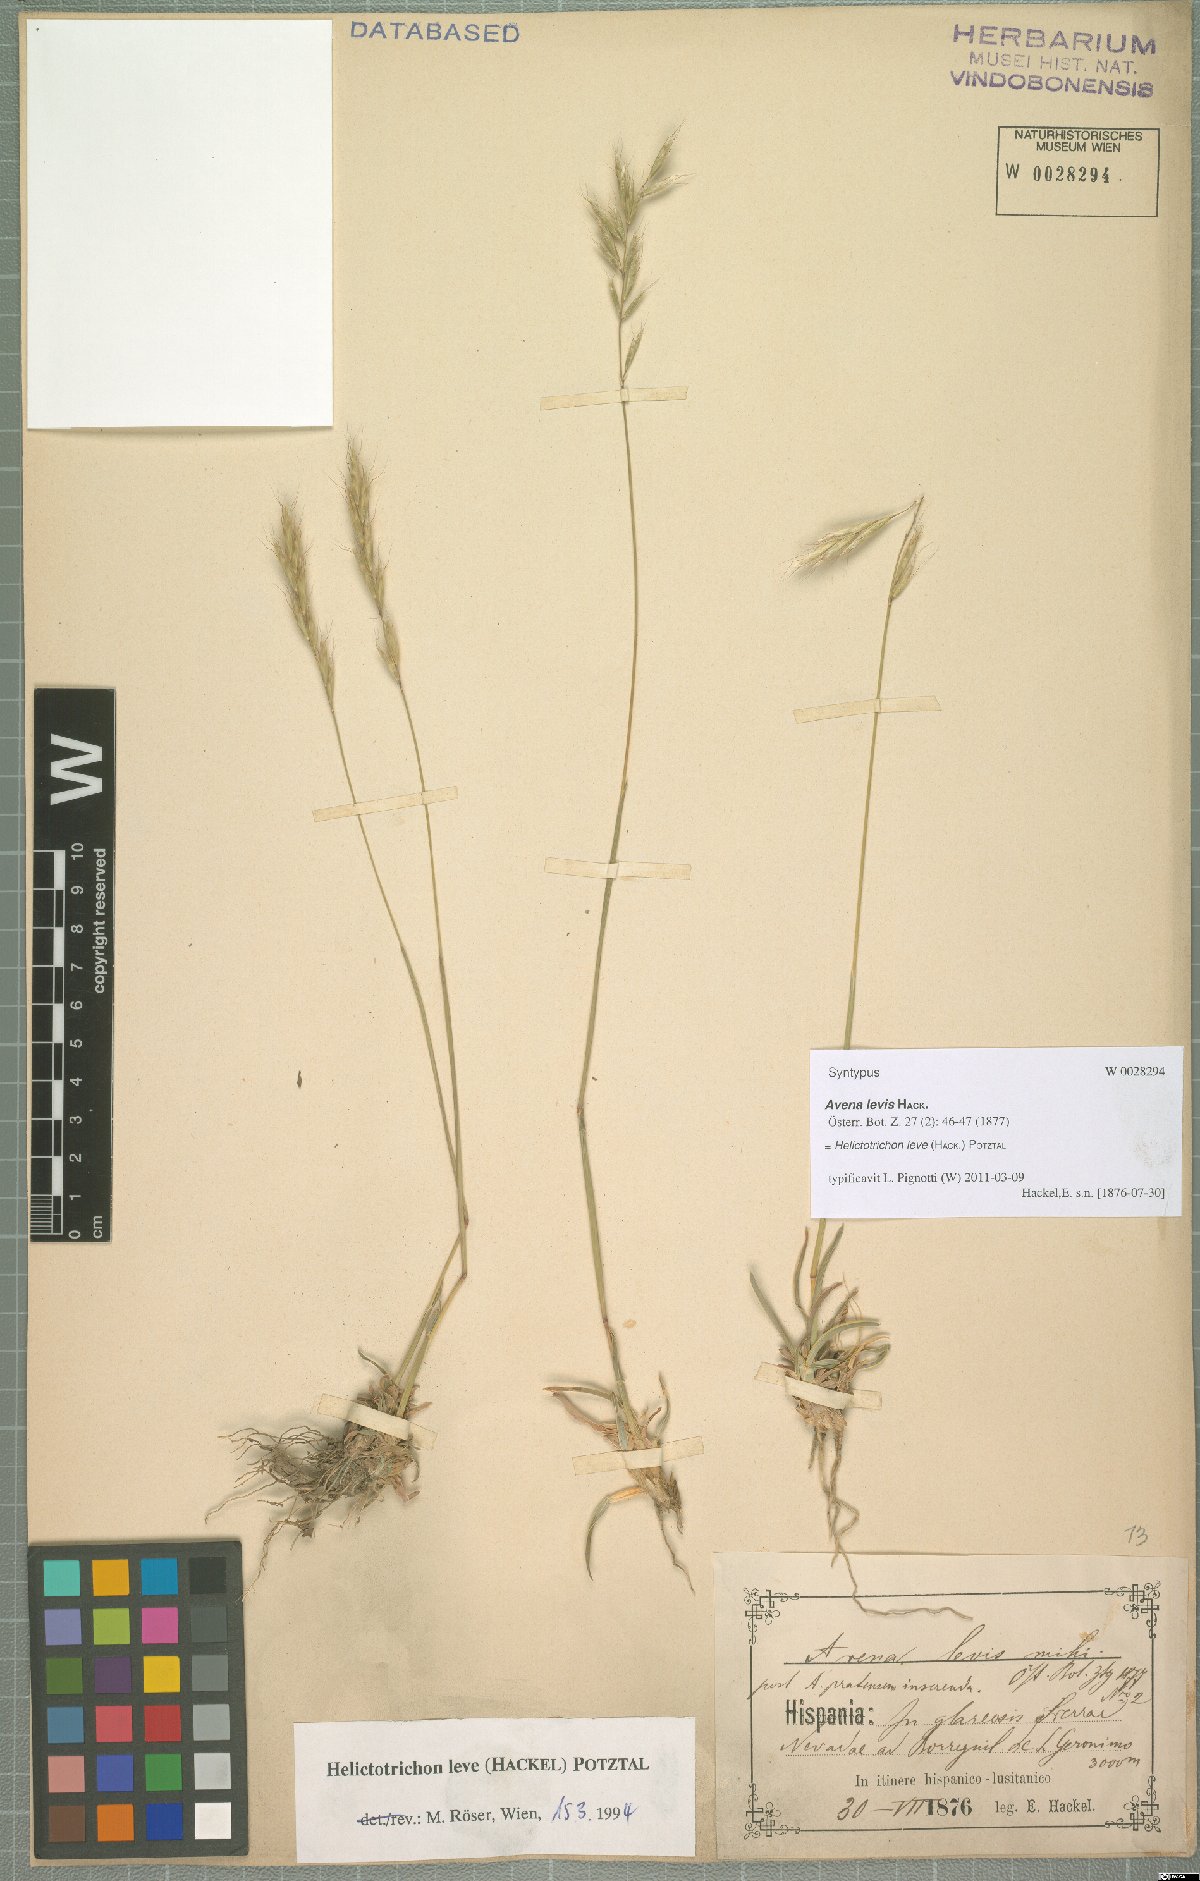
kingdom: Plantae
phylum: Tracheophyta
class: Liliopsida
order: Poales
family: Poaceae
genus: Helictochloa
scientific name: Helictochloa levis
